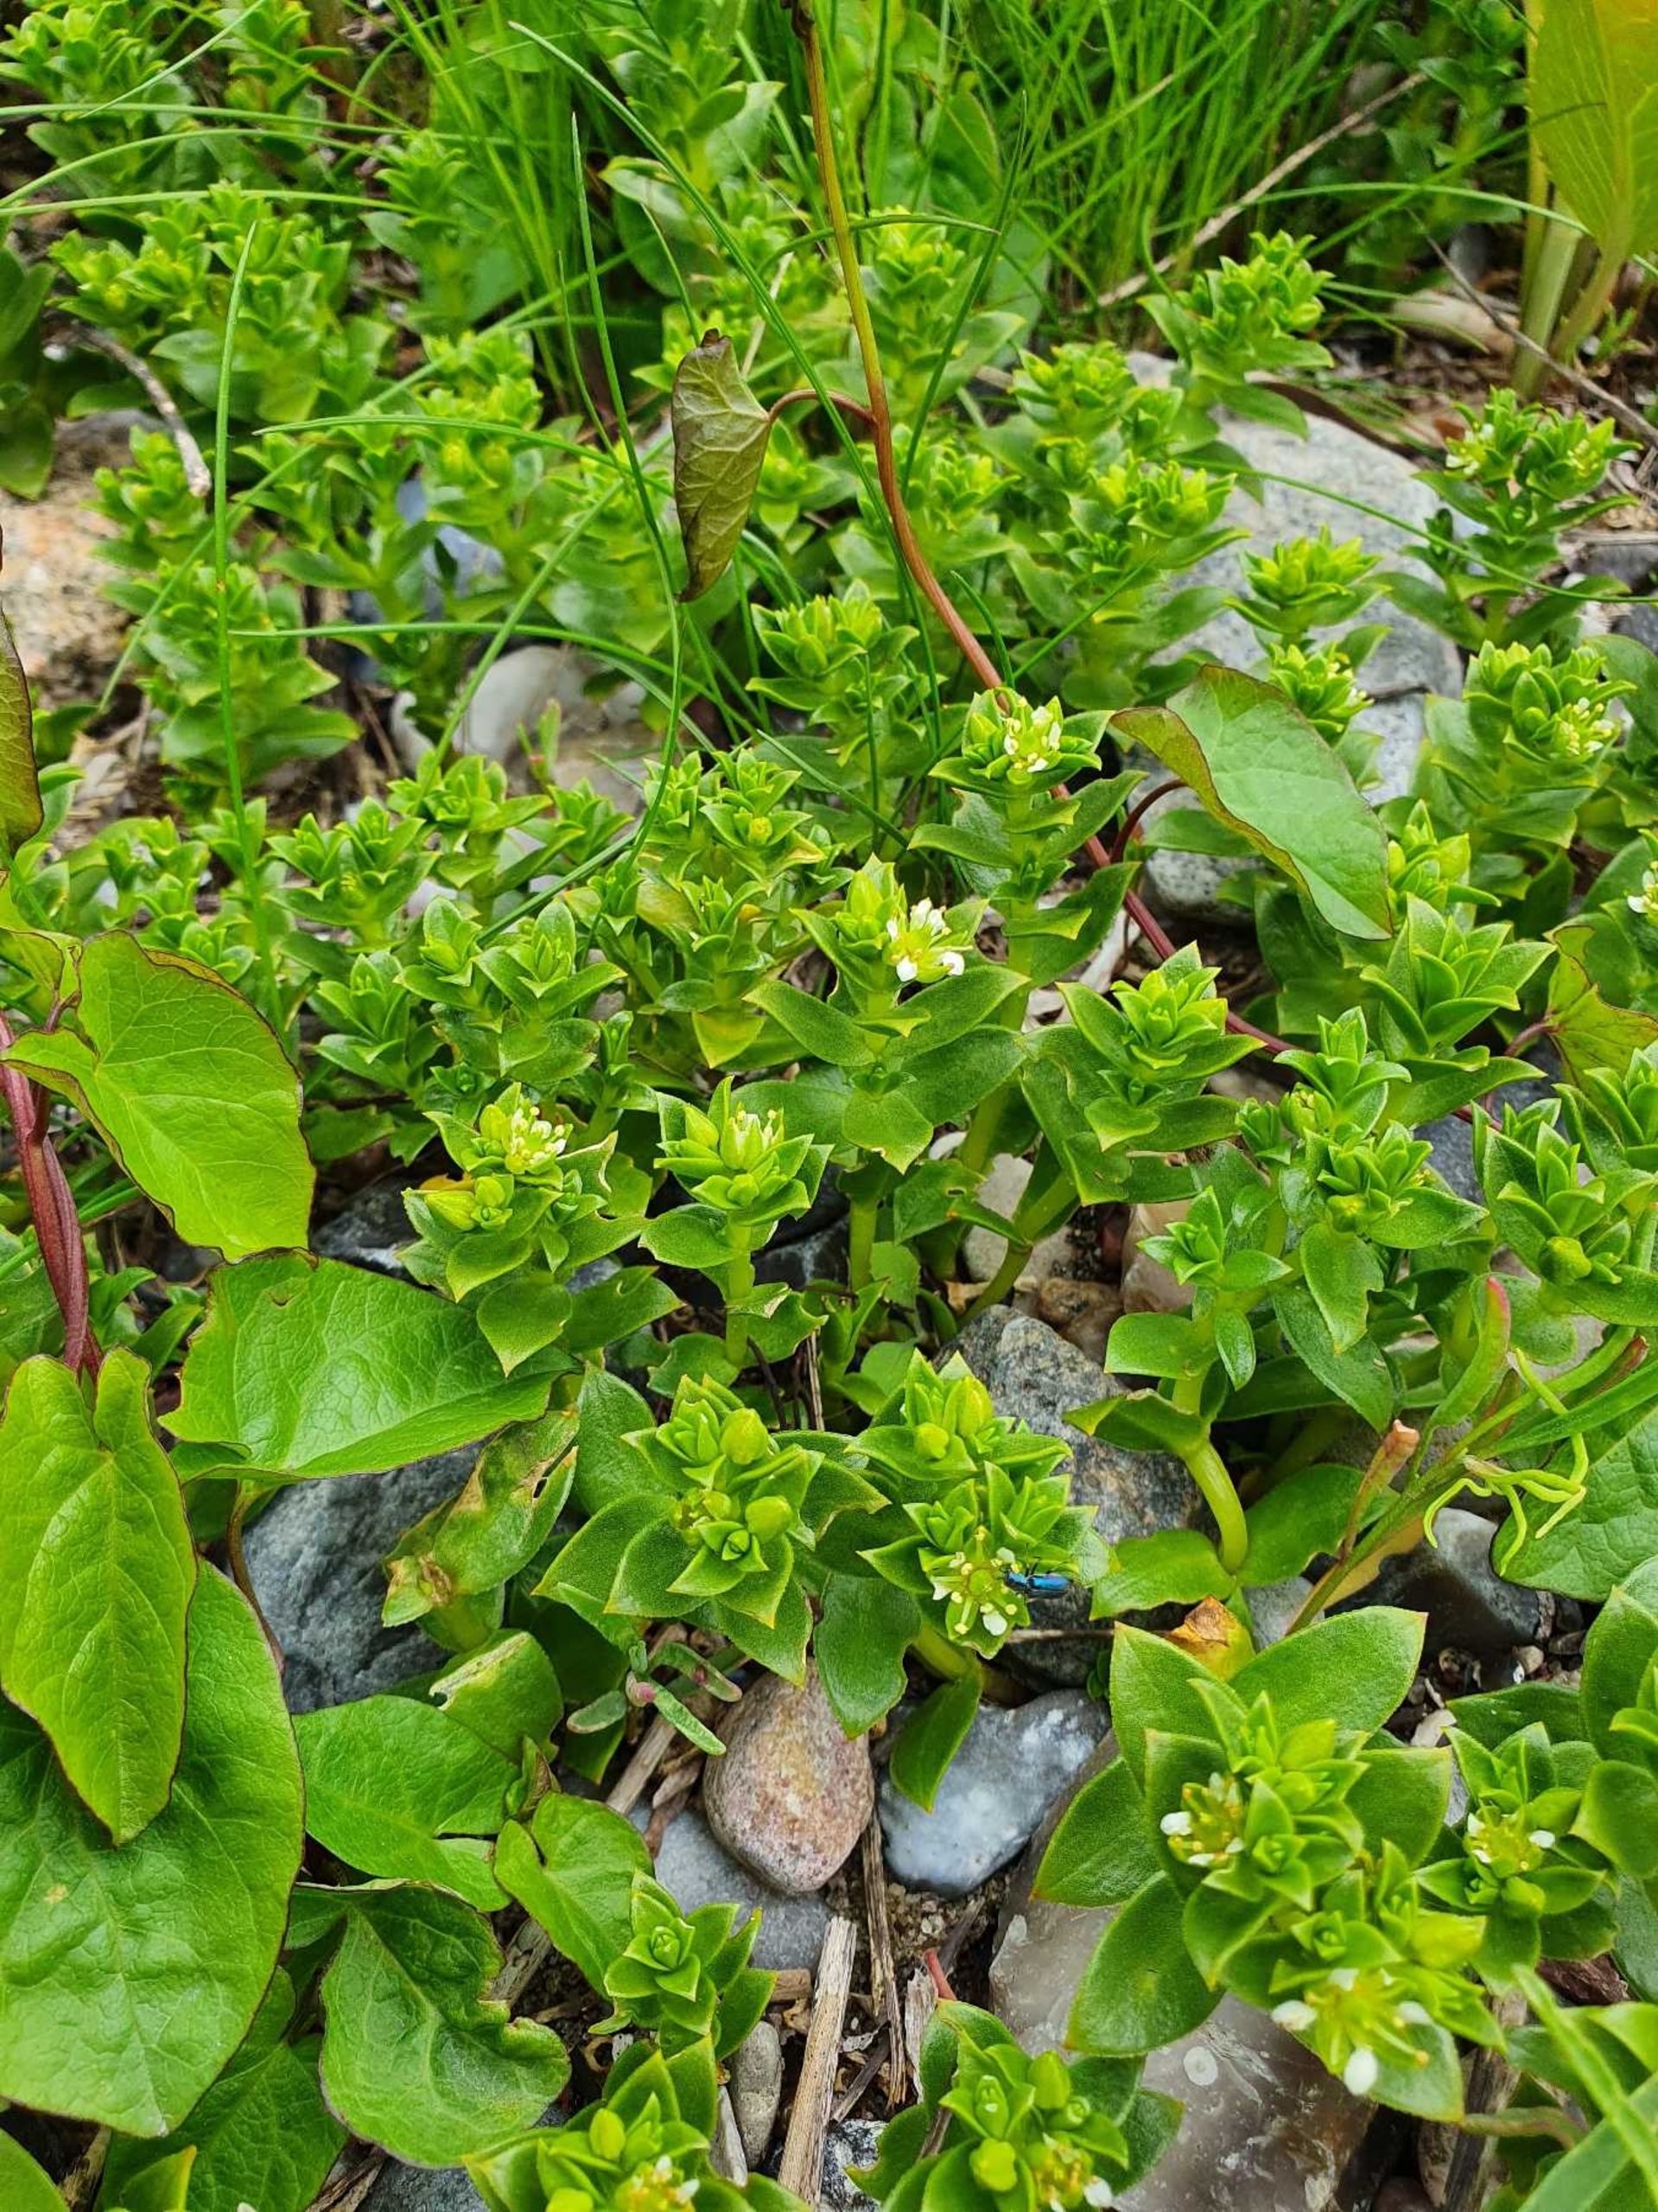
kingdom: Plantae
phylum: Tracheophyta
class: Magnoliopsida
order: Caryophyllales
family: Caryophyllaceae
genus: Honckenya
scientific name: Honckenya peploides
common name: Strandarve
